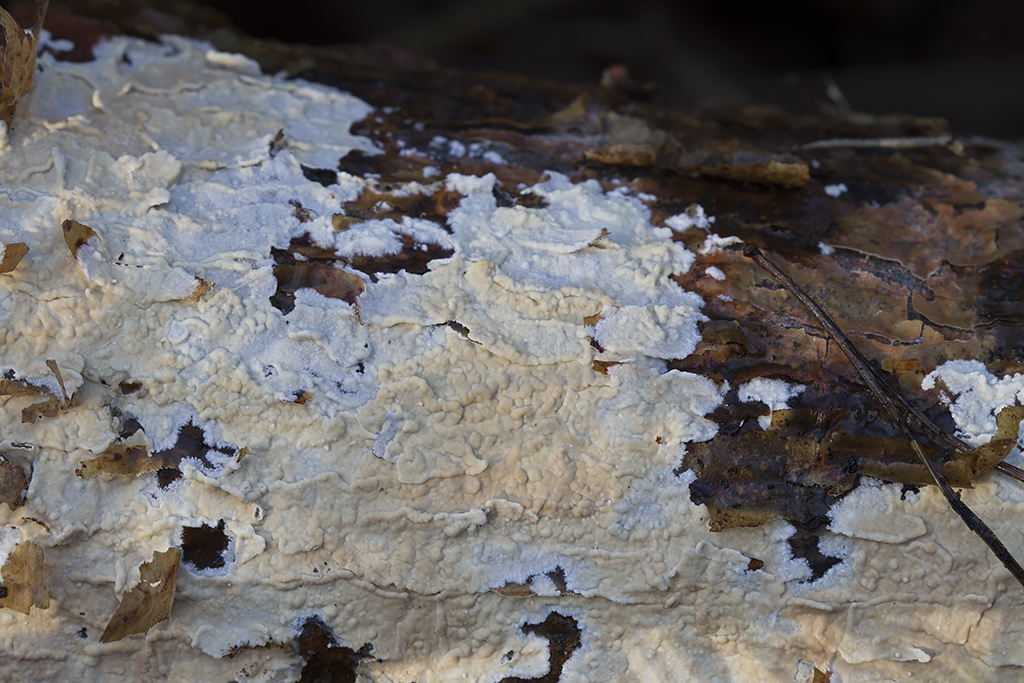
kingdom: Fungi
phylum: Basidiomycota
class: Agaricomycetes
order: Agaricales
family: Physalacriaceae
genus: Cylindrobasidium
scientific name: Cylindrobasidium evolvens
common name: sprækkehinde
